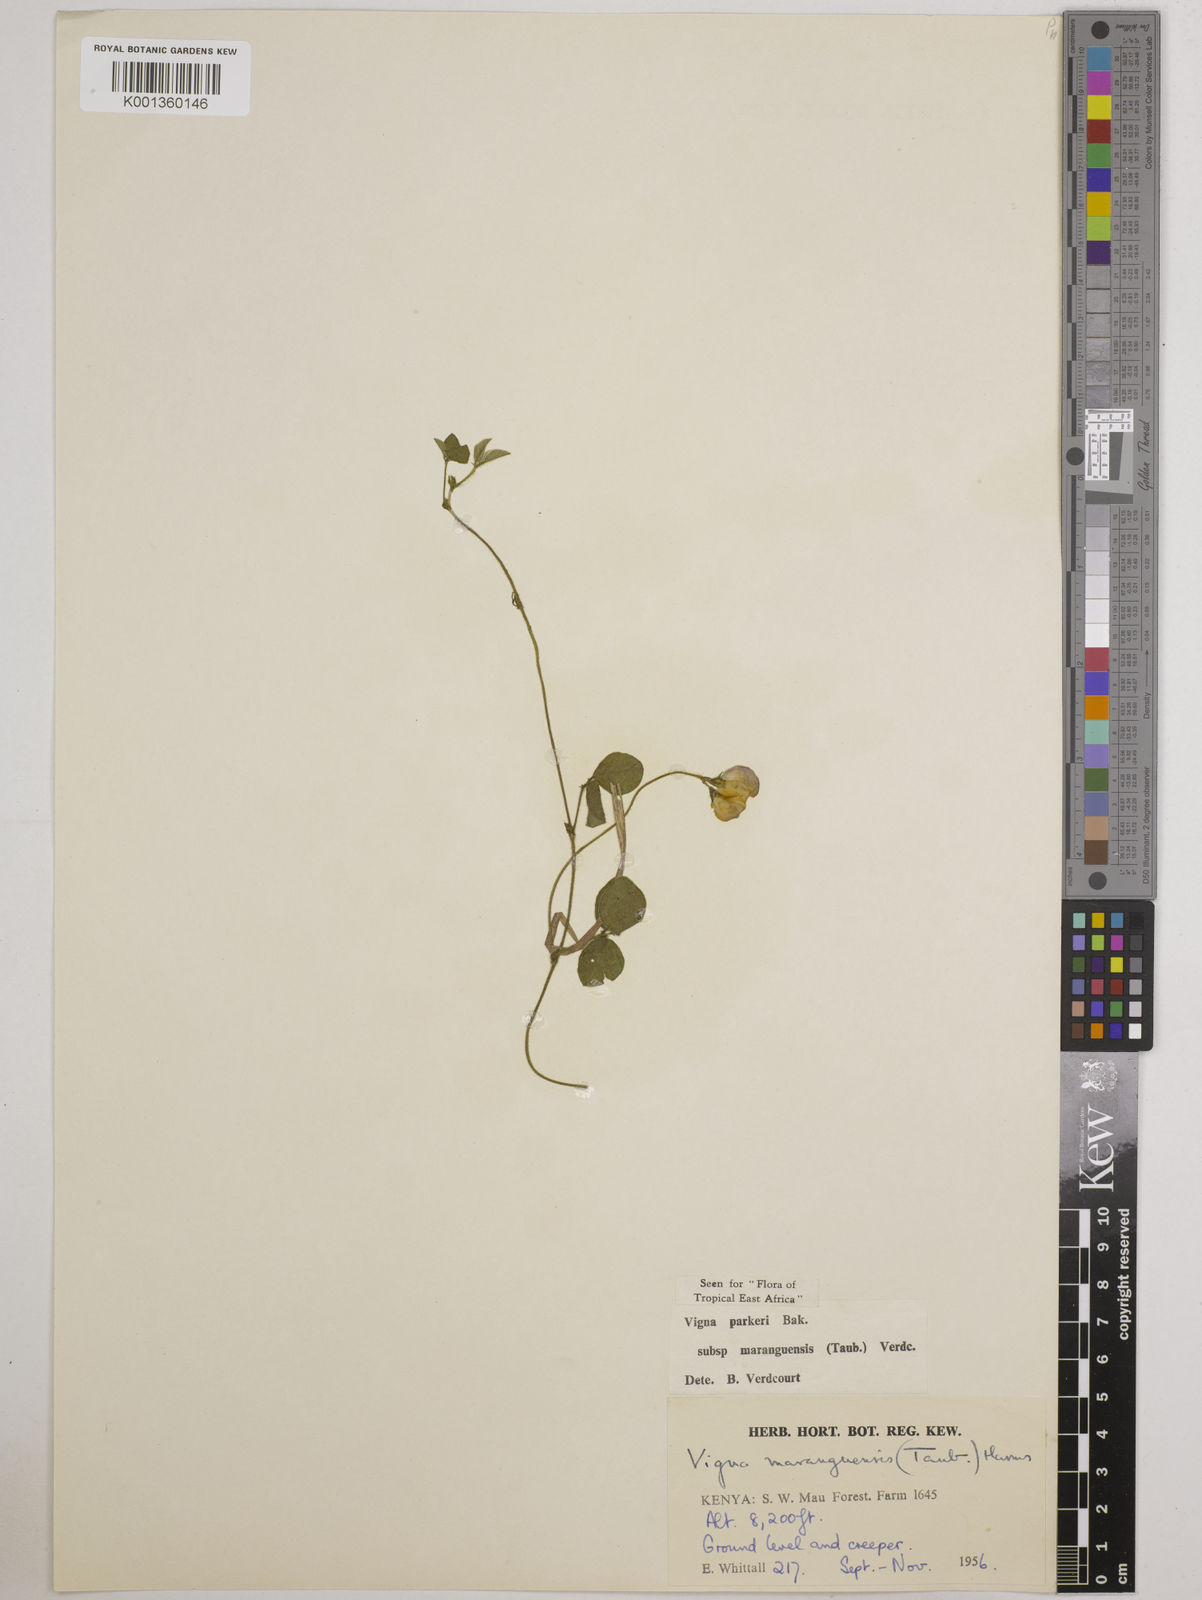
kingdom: Plantae
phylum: Tracheophyta
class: Magnoliopsida
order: Fabales
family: Fabaceae
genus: Vigna
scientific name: Vigna
